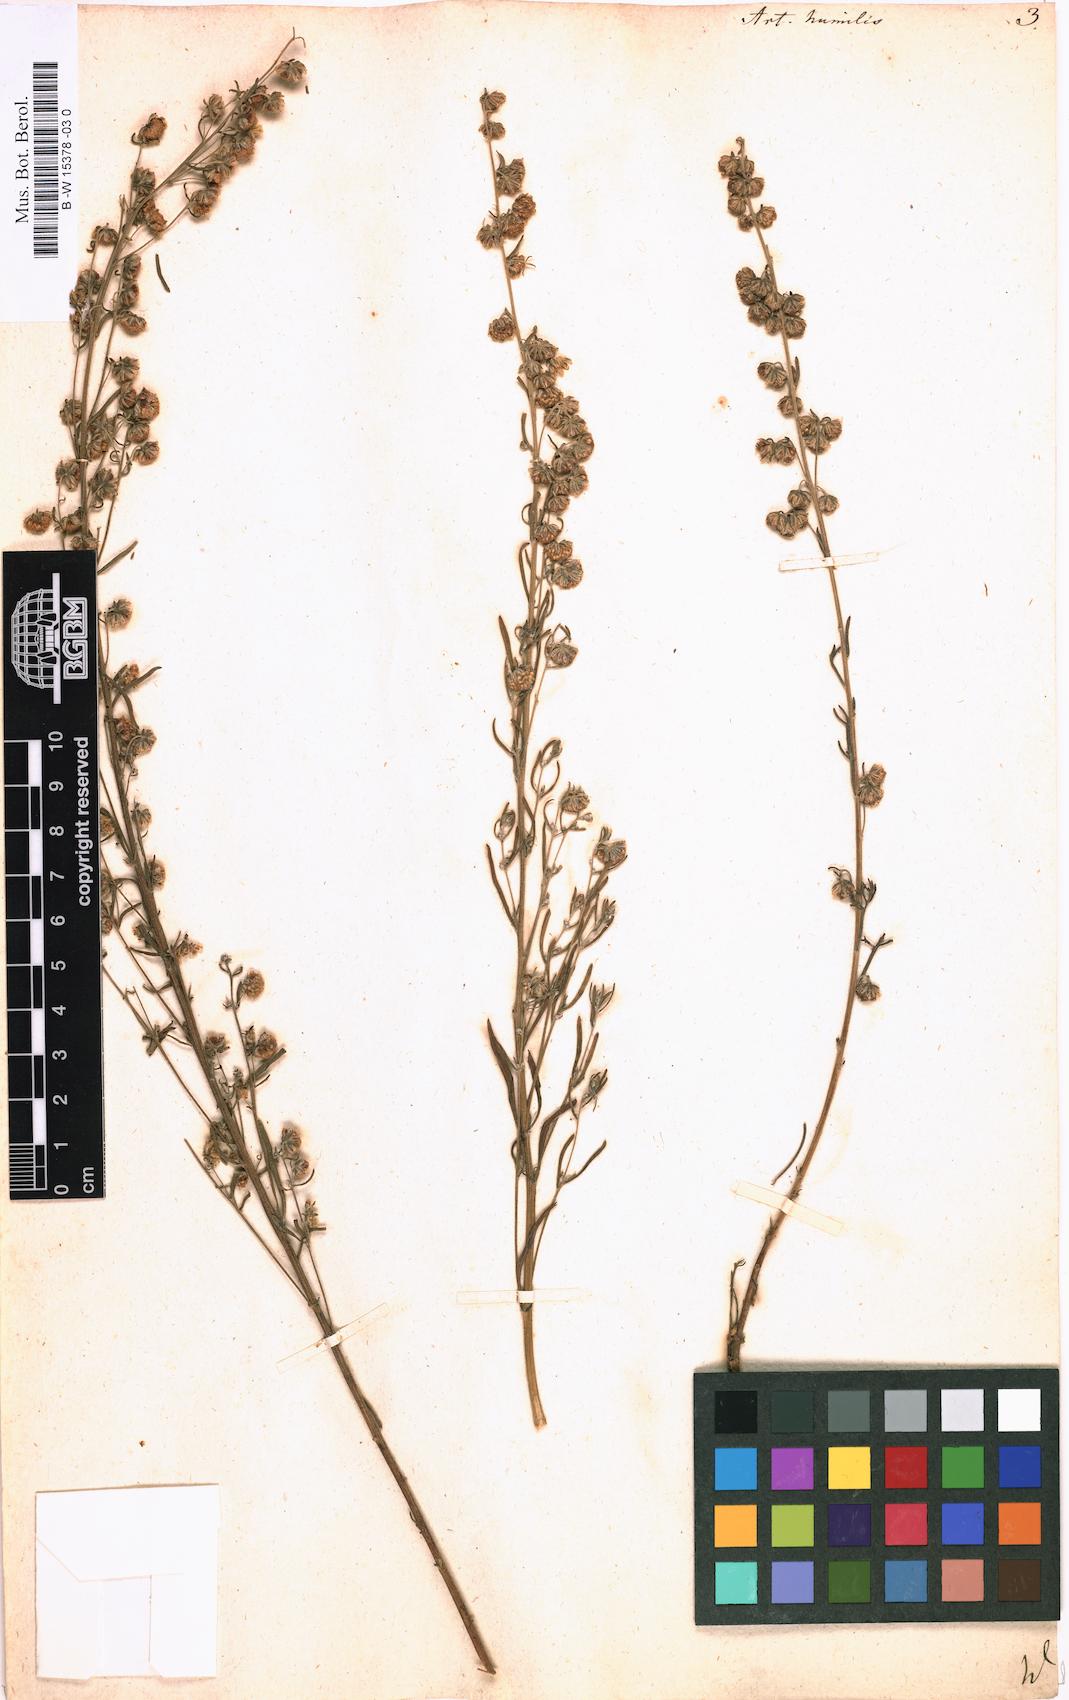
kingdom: Plantae
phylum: Tracheophyta
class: Magnoliopsida
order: Asterales
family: Asteraceae
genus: Artemisia
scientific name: Artemisia abrotanum
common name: Southernwood
